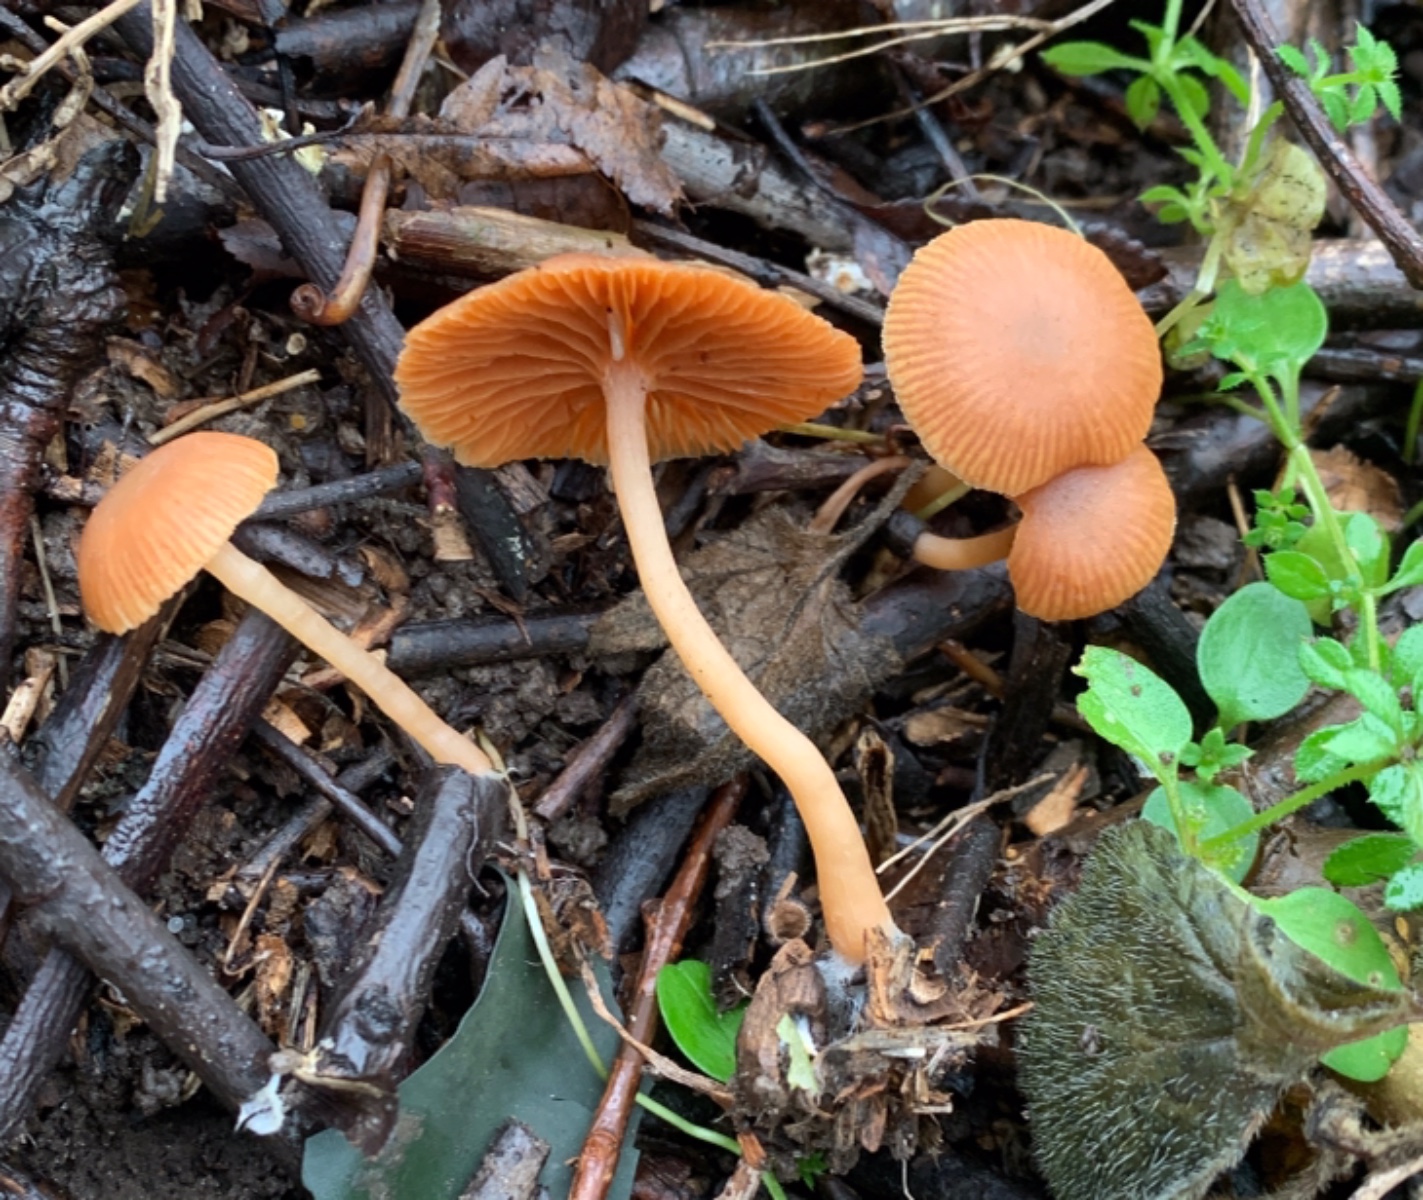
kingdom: Fungi
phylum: Basidiomycota
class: Agaricomycetes
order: Agaricales
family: Tubariaceae
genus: Tubaria
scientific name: Tubaria furfuracea
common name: kliddet fnughat
